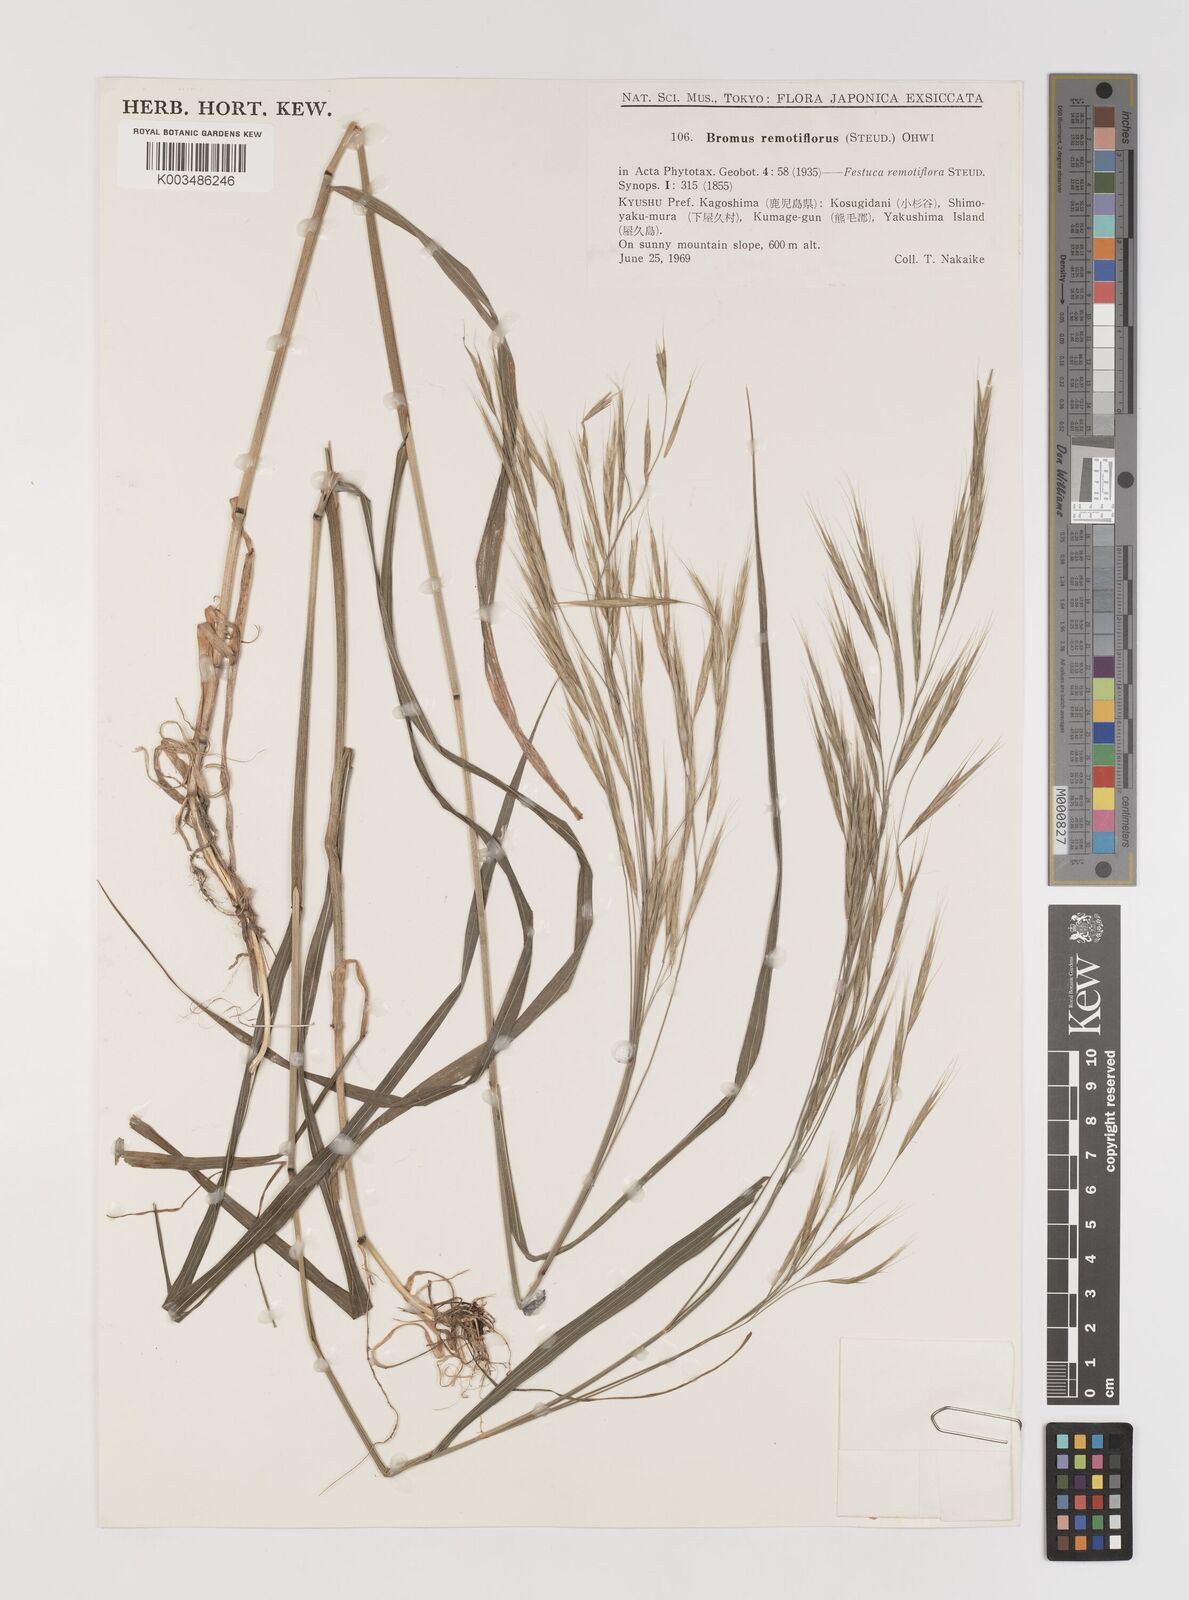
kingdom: Plantae
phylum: Tracheophyta
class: Liliopsida
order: Poales
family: Poaceae
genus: Bromus
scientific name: Bromus remotiflorus
